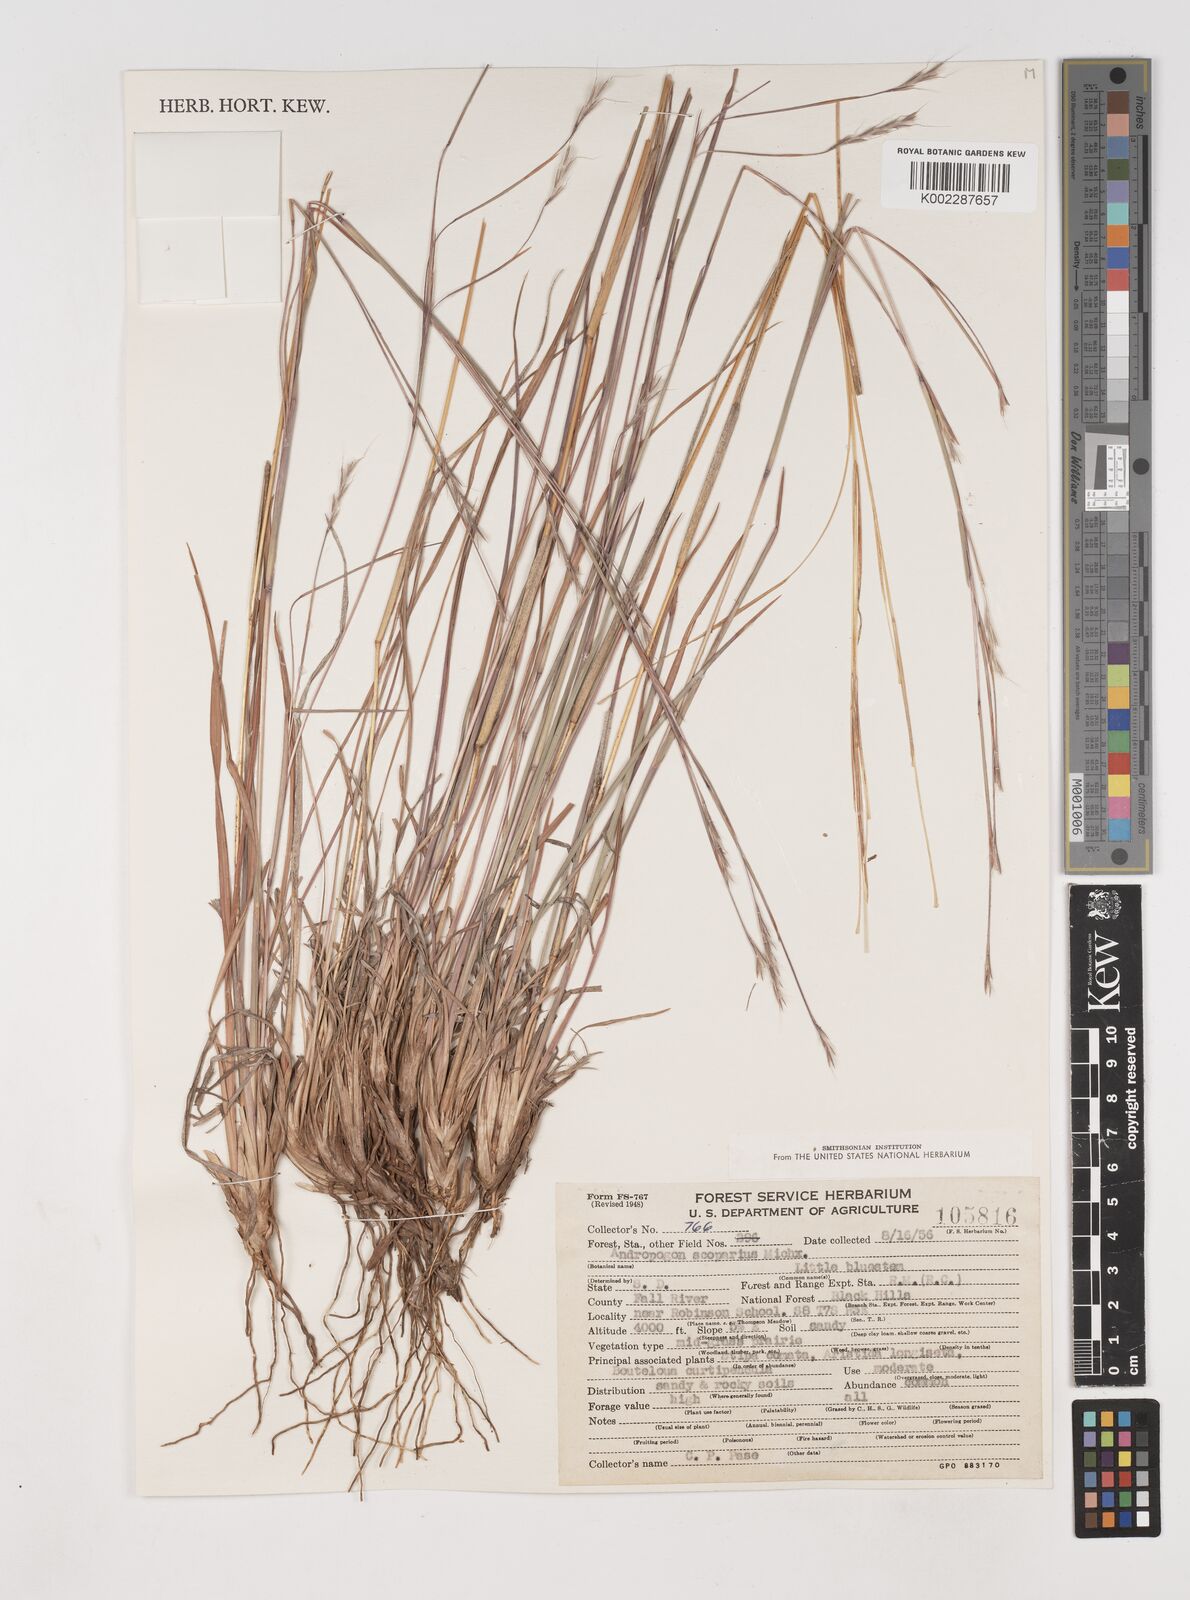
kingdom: Plantae
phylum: Tracheophyta
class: Liliopsida
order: Poales
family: Poaceae
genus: Schizachyrium
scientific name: Schizachyrium scoparium
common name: Little bluestem
